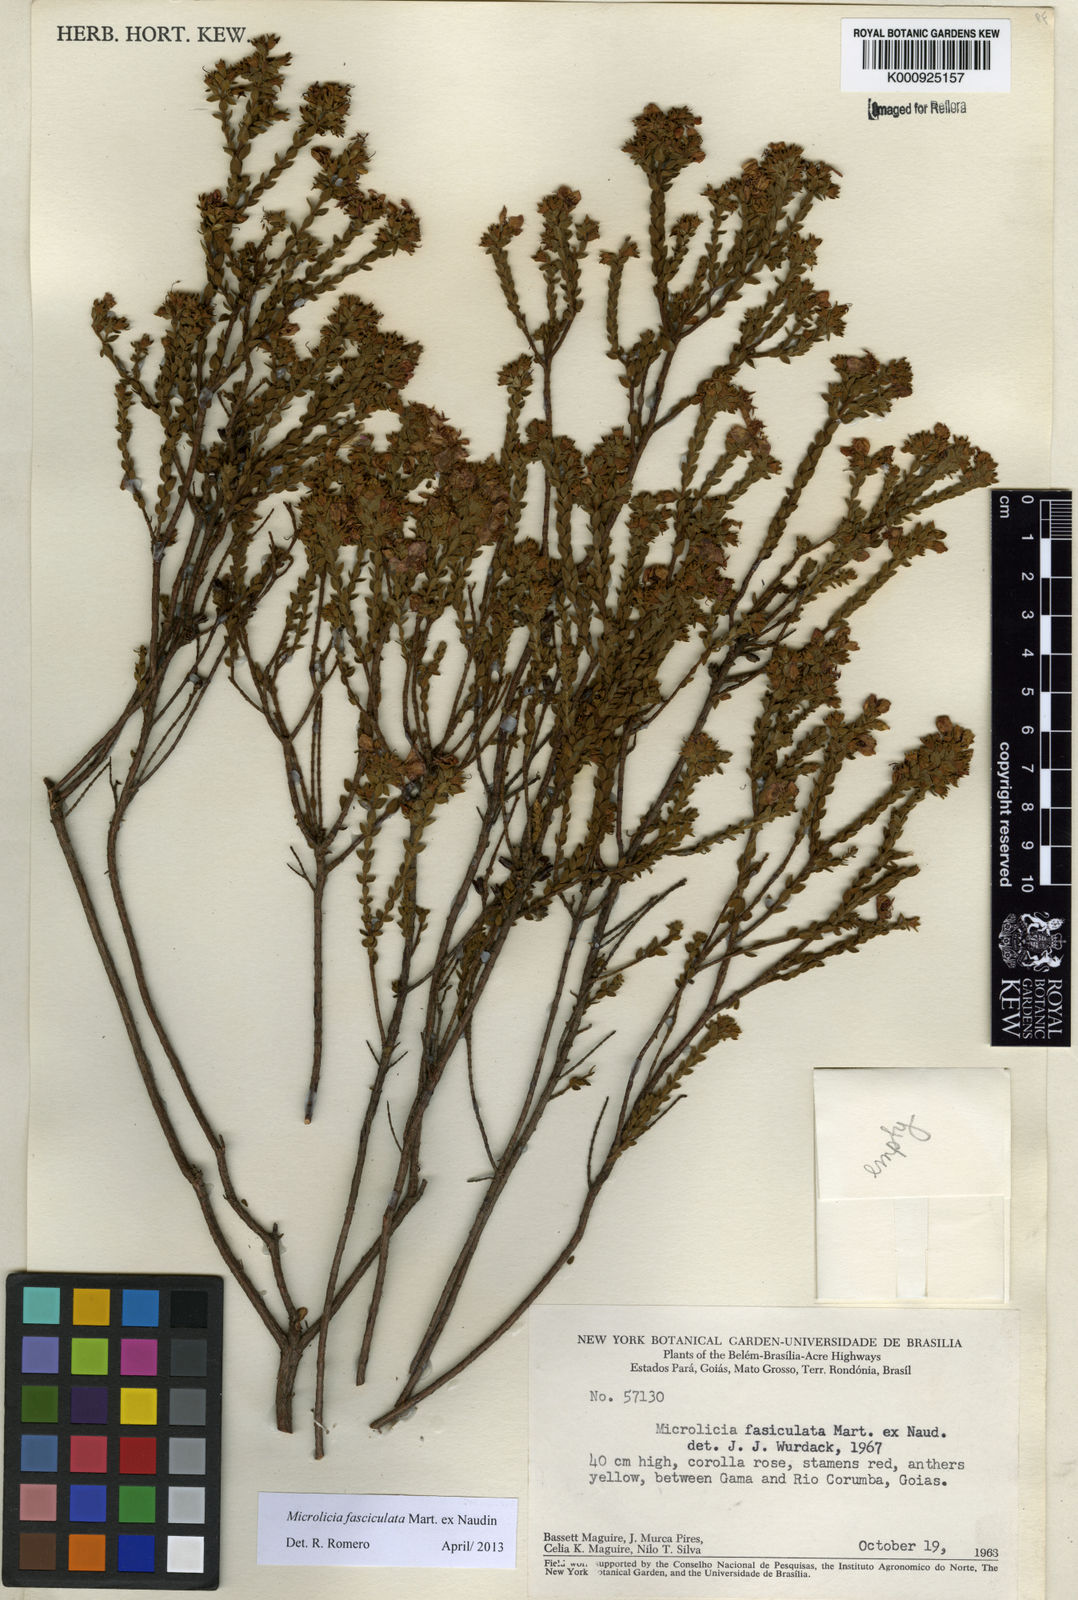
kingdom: Plantae
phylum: Tracheophyta
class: Magnoliopsida
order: Myrtales
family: Melastomataceae
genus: Microlicia
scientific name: Microlicia fasciculata
